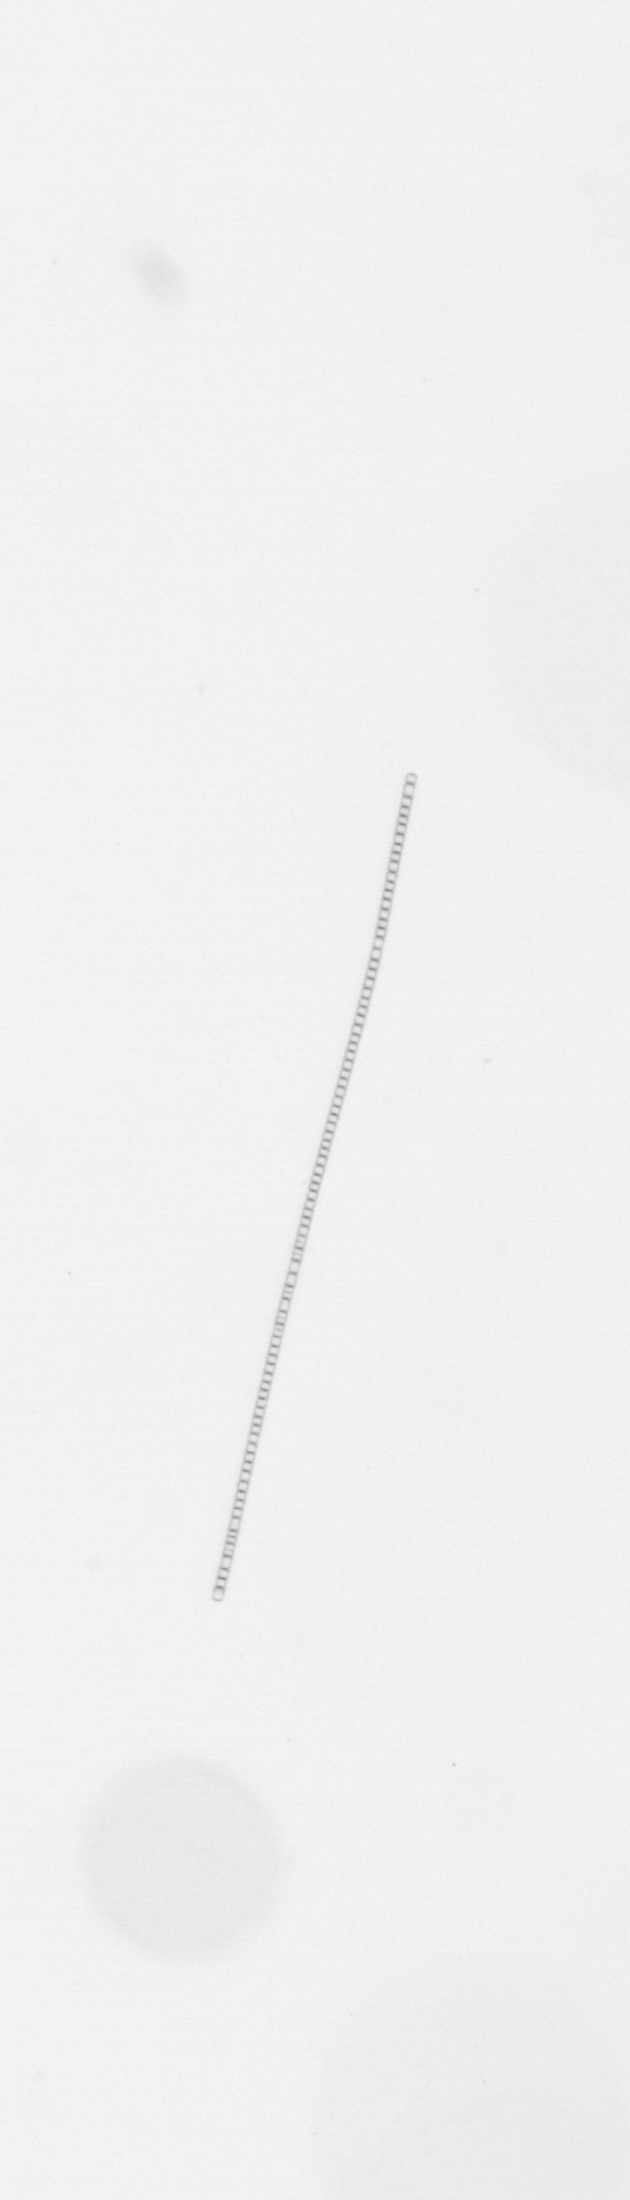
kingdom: Chromista
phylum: Ochrophyta
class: Bacillariophyceae
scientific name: Bacillariophyceae
